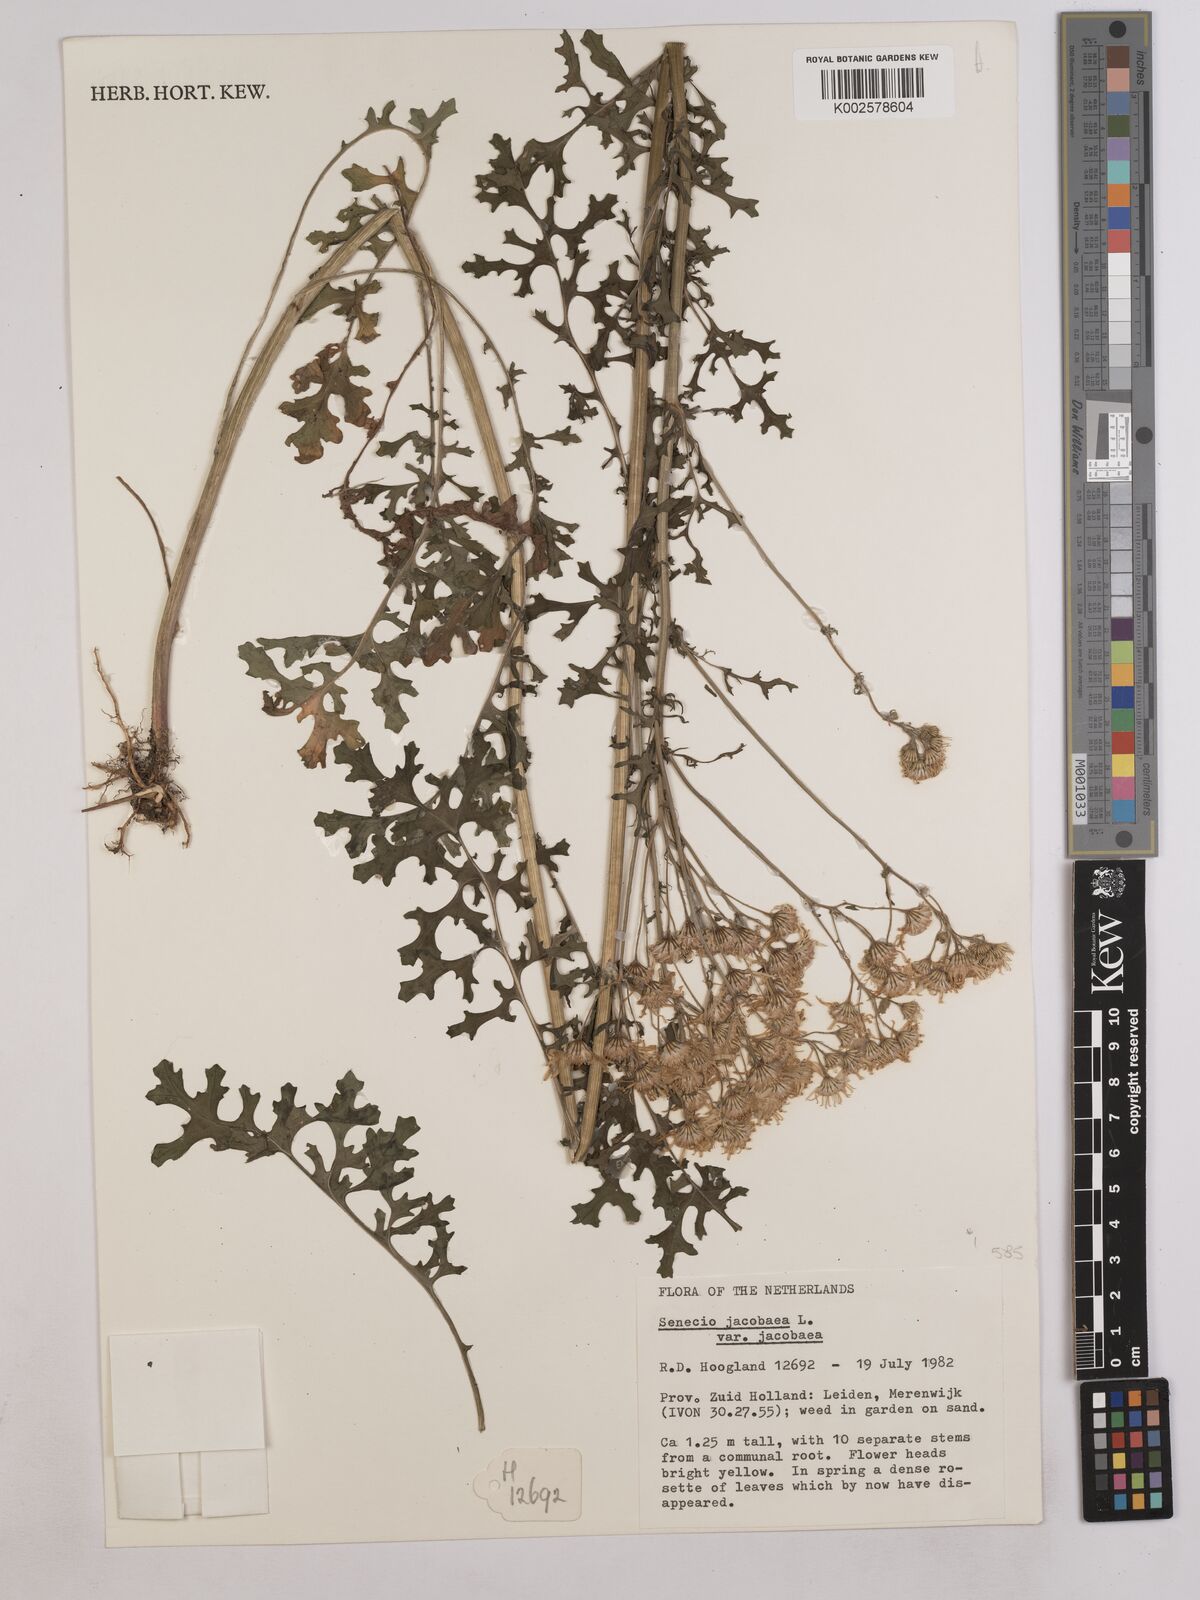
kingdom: Plantae
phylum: Tracheophyta
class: Magnoliopsida
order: Asterales
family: Asteraceae
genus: Jacobaea
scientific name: Jacobaea vulgaris
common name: Stinking willie
